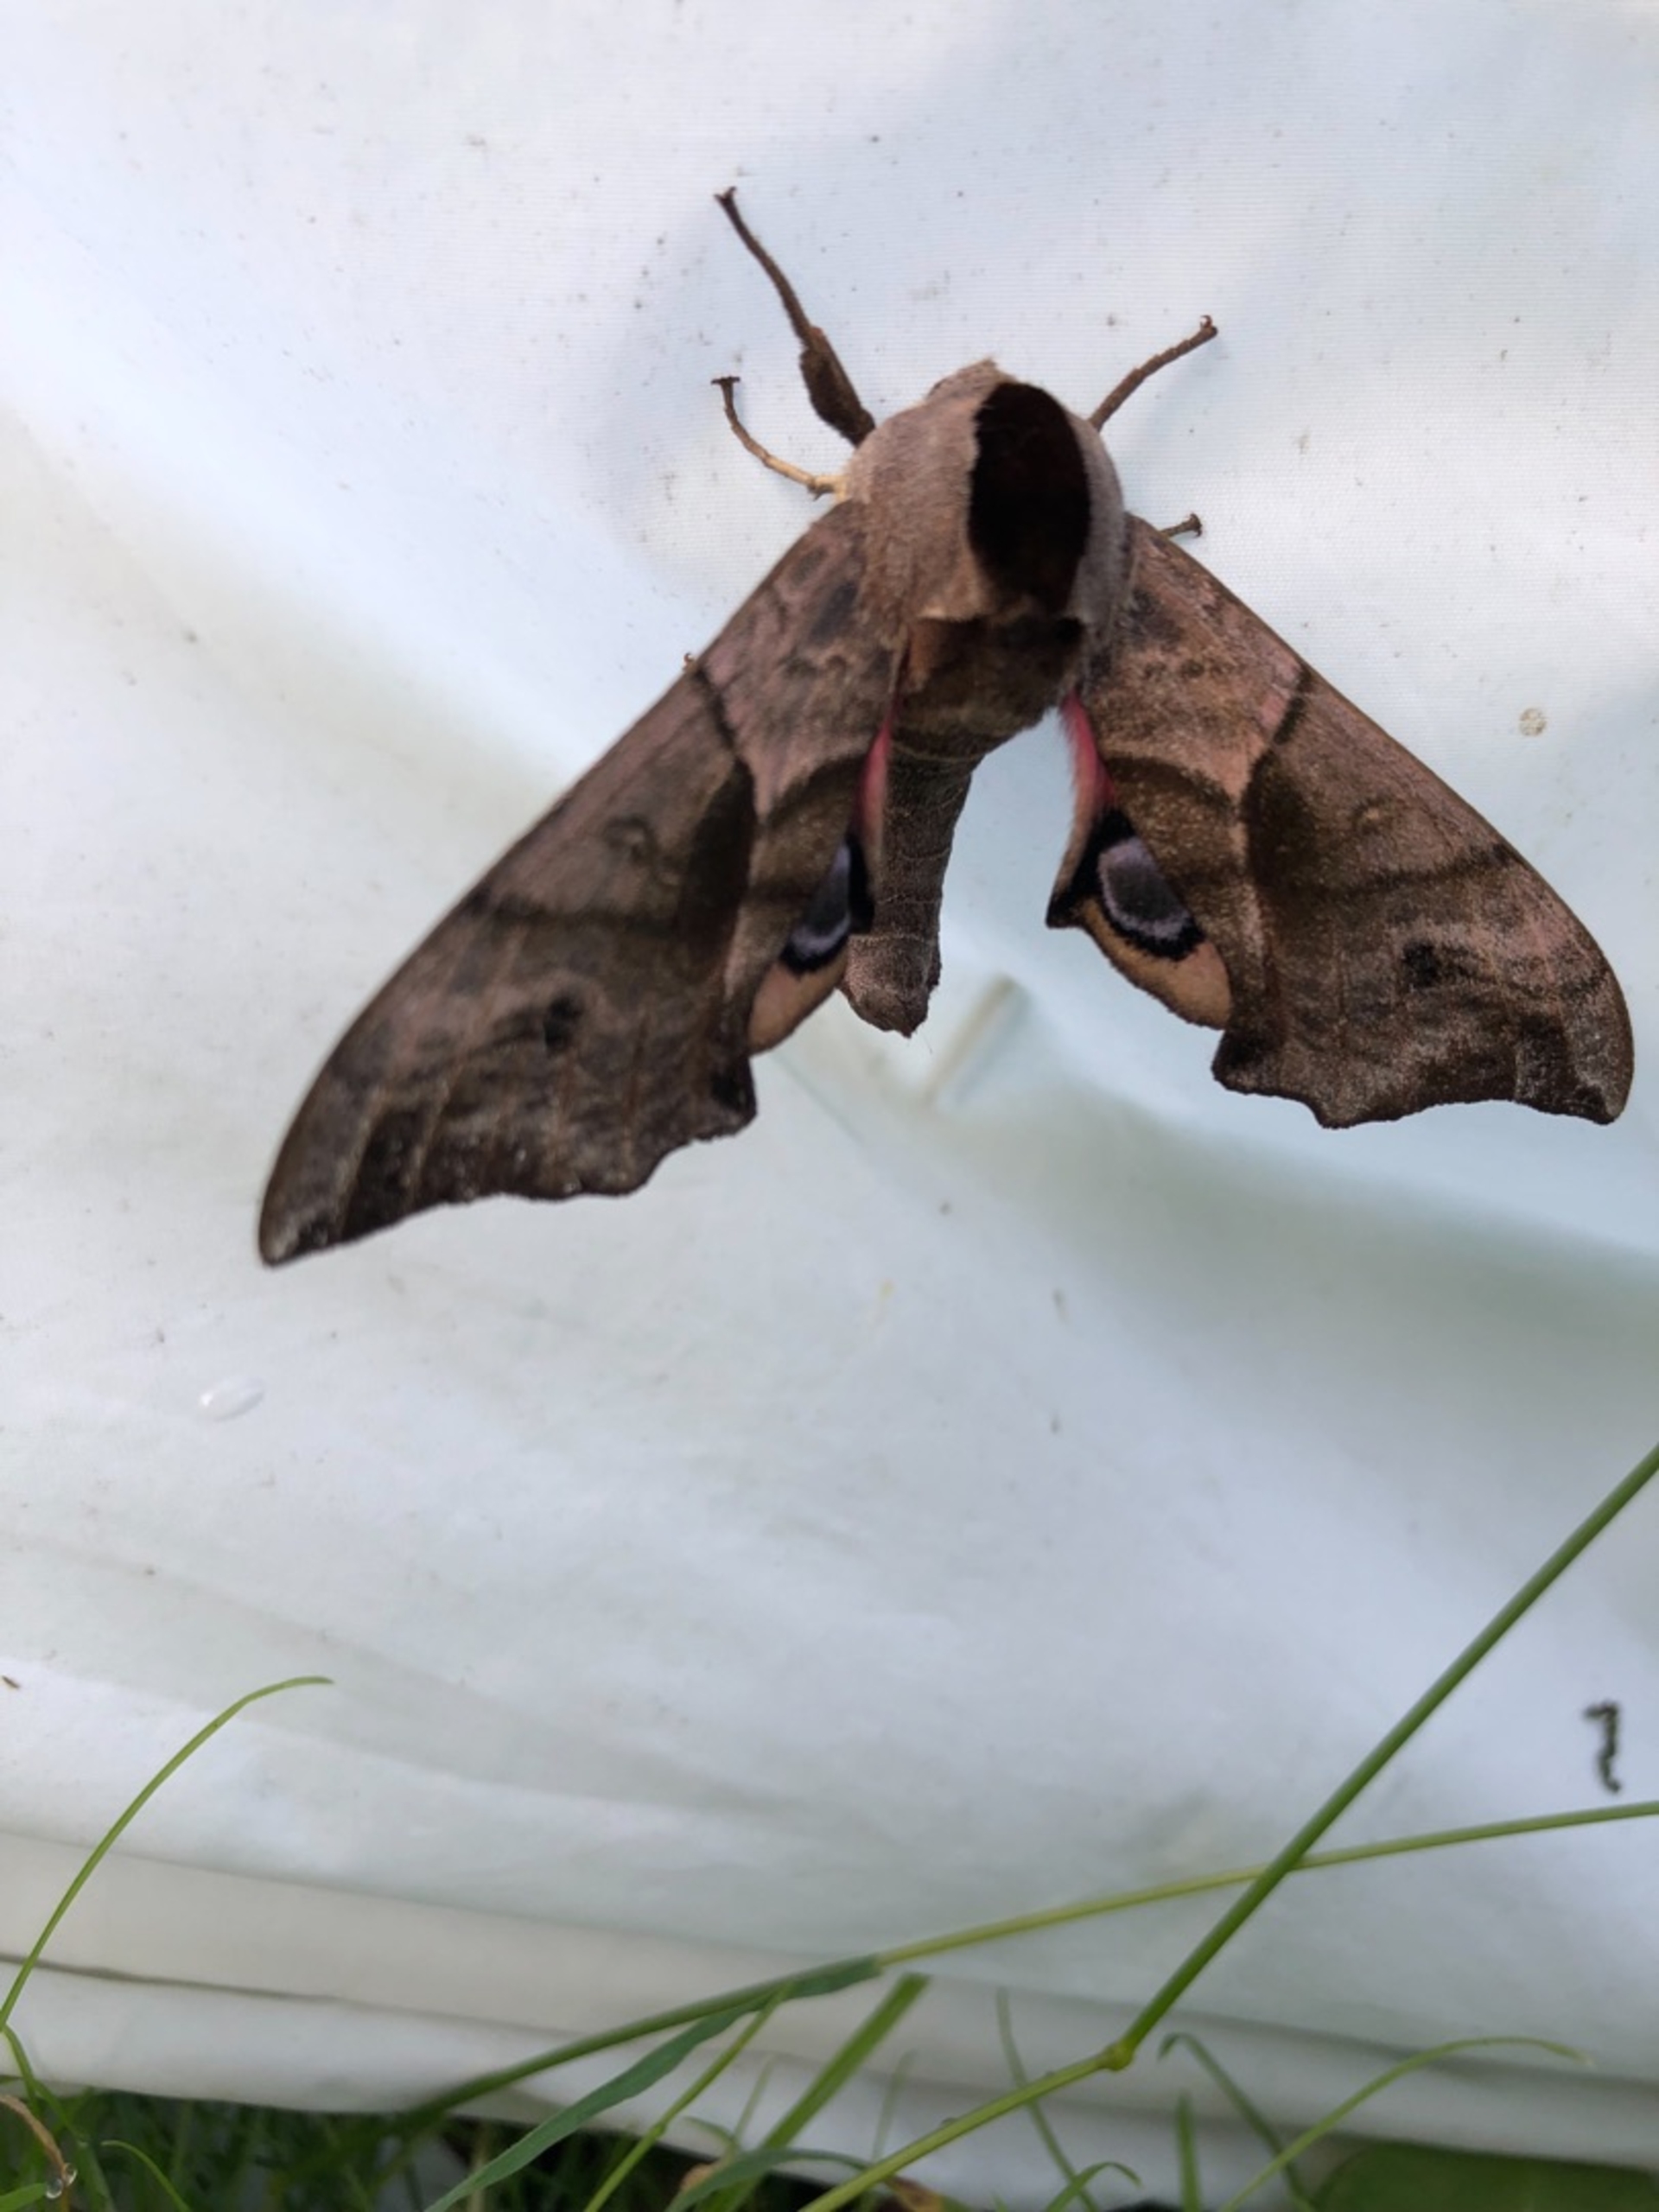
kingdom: Animalia
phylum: Arthropoda
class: Insecta
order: Lepidoptera
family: Sphingidae
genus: Smerinthus
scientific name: Smerinthus ocellata
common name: Aftenpåfugleøje
